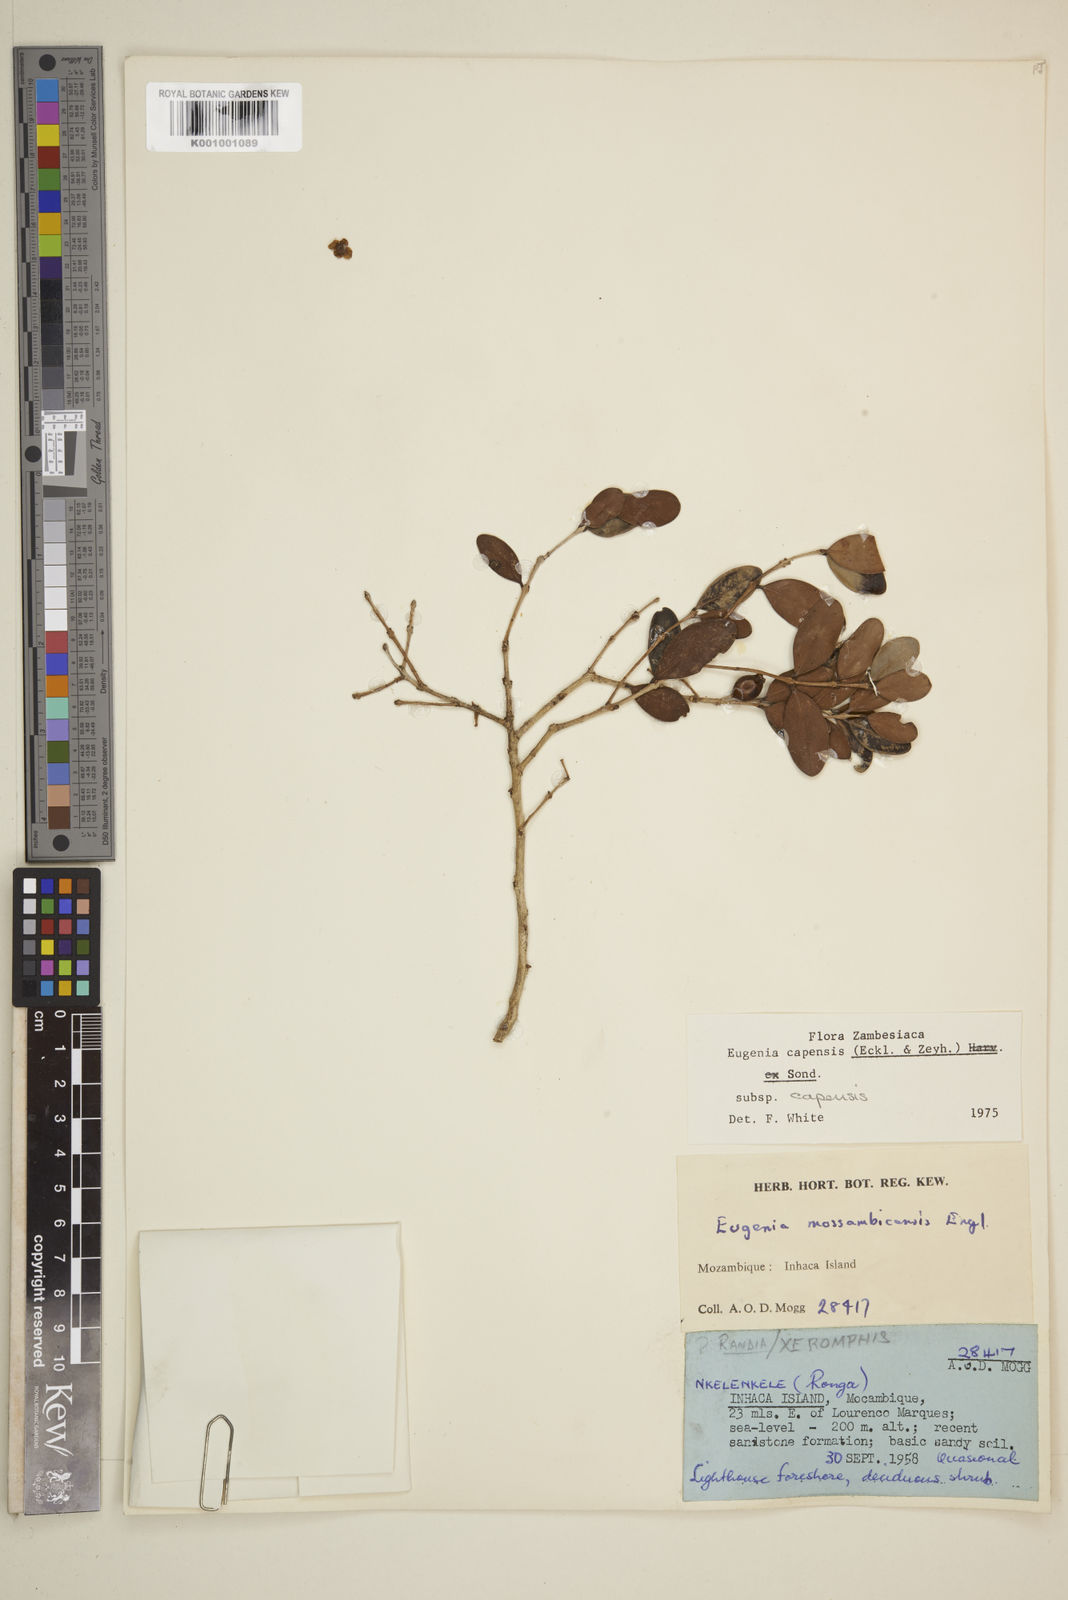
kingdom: Plantae
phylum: Tracheophyta
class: Liliopsida
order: Asparagales
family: Orchidaceae
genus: Biermannia
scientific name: Biermannia laciniata
